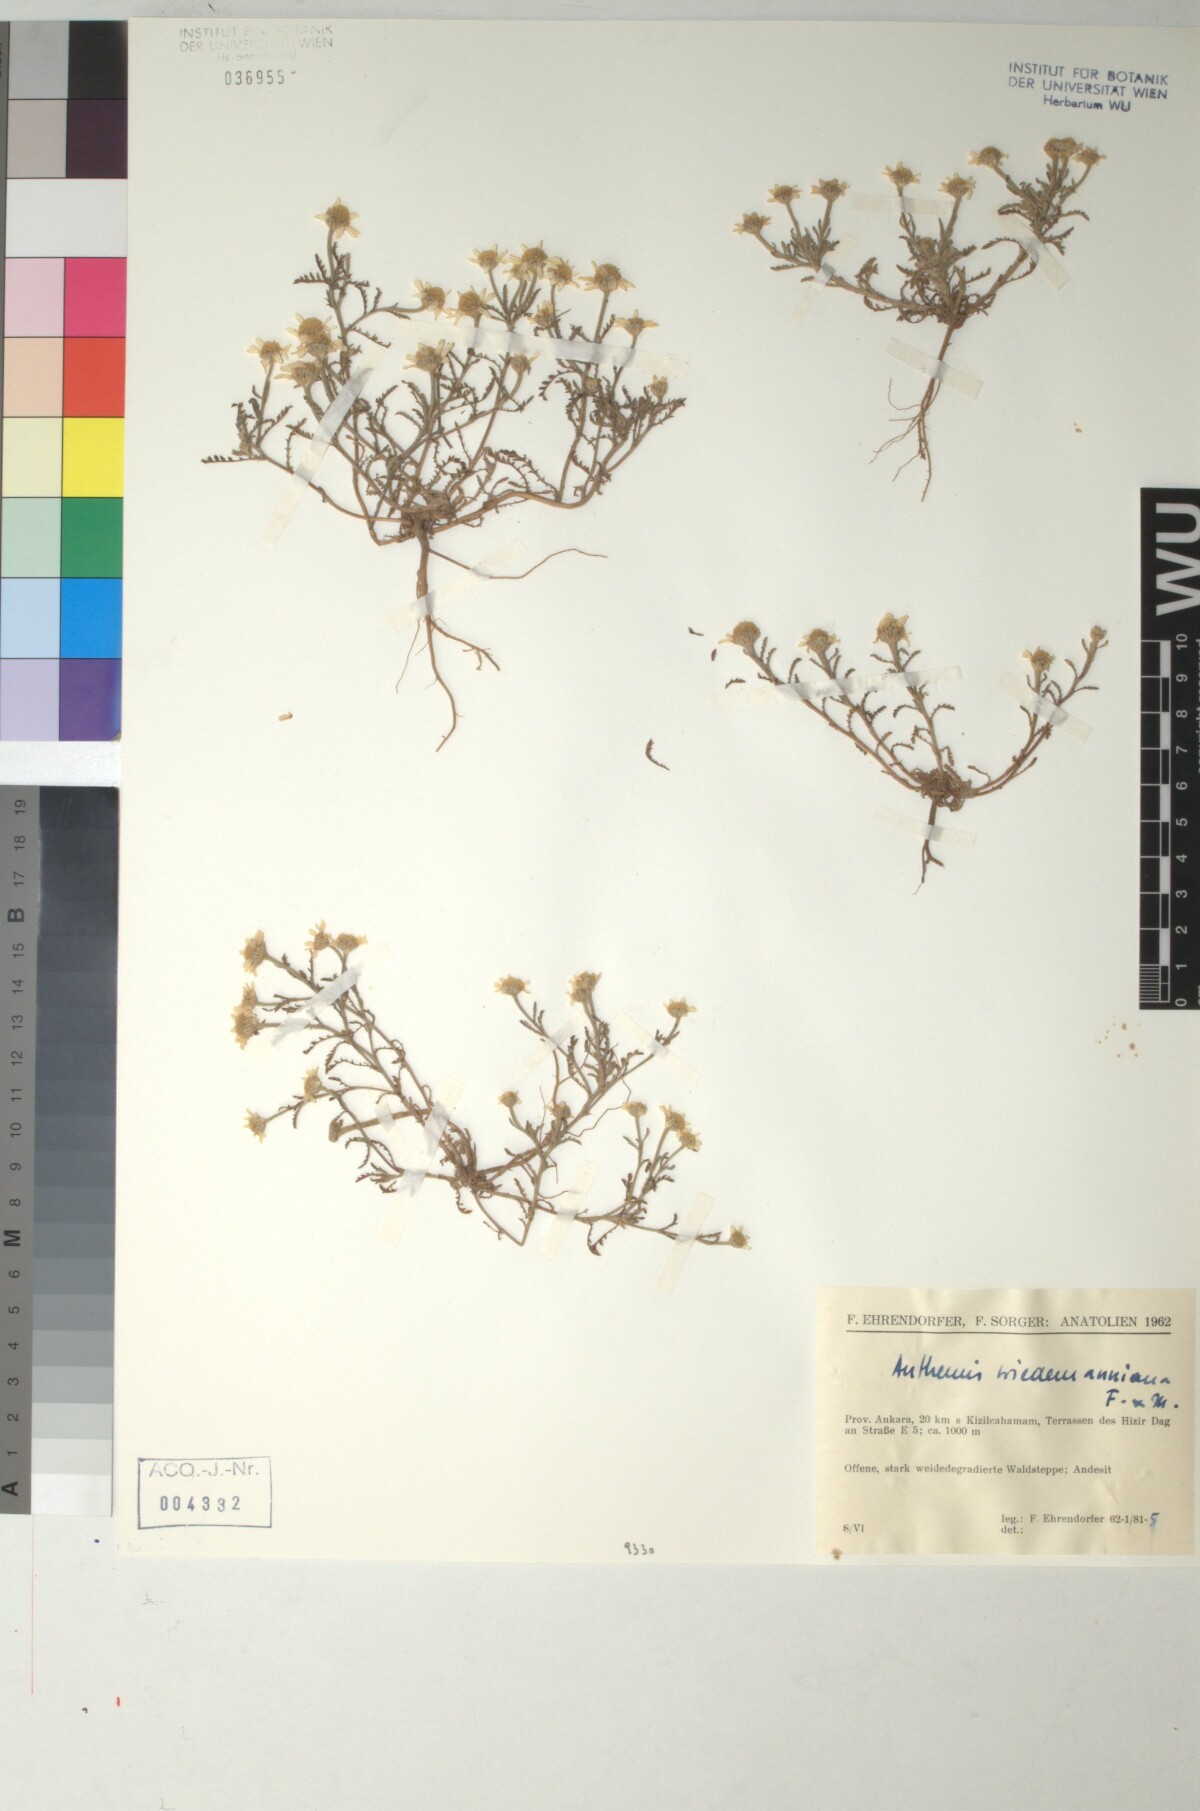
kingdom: Plantae
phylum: Tracheophyta
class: Magnoliopsida
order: Asterales
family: Asteraceae
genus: Cota
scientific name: Cota wiedemanniana
